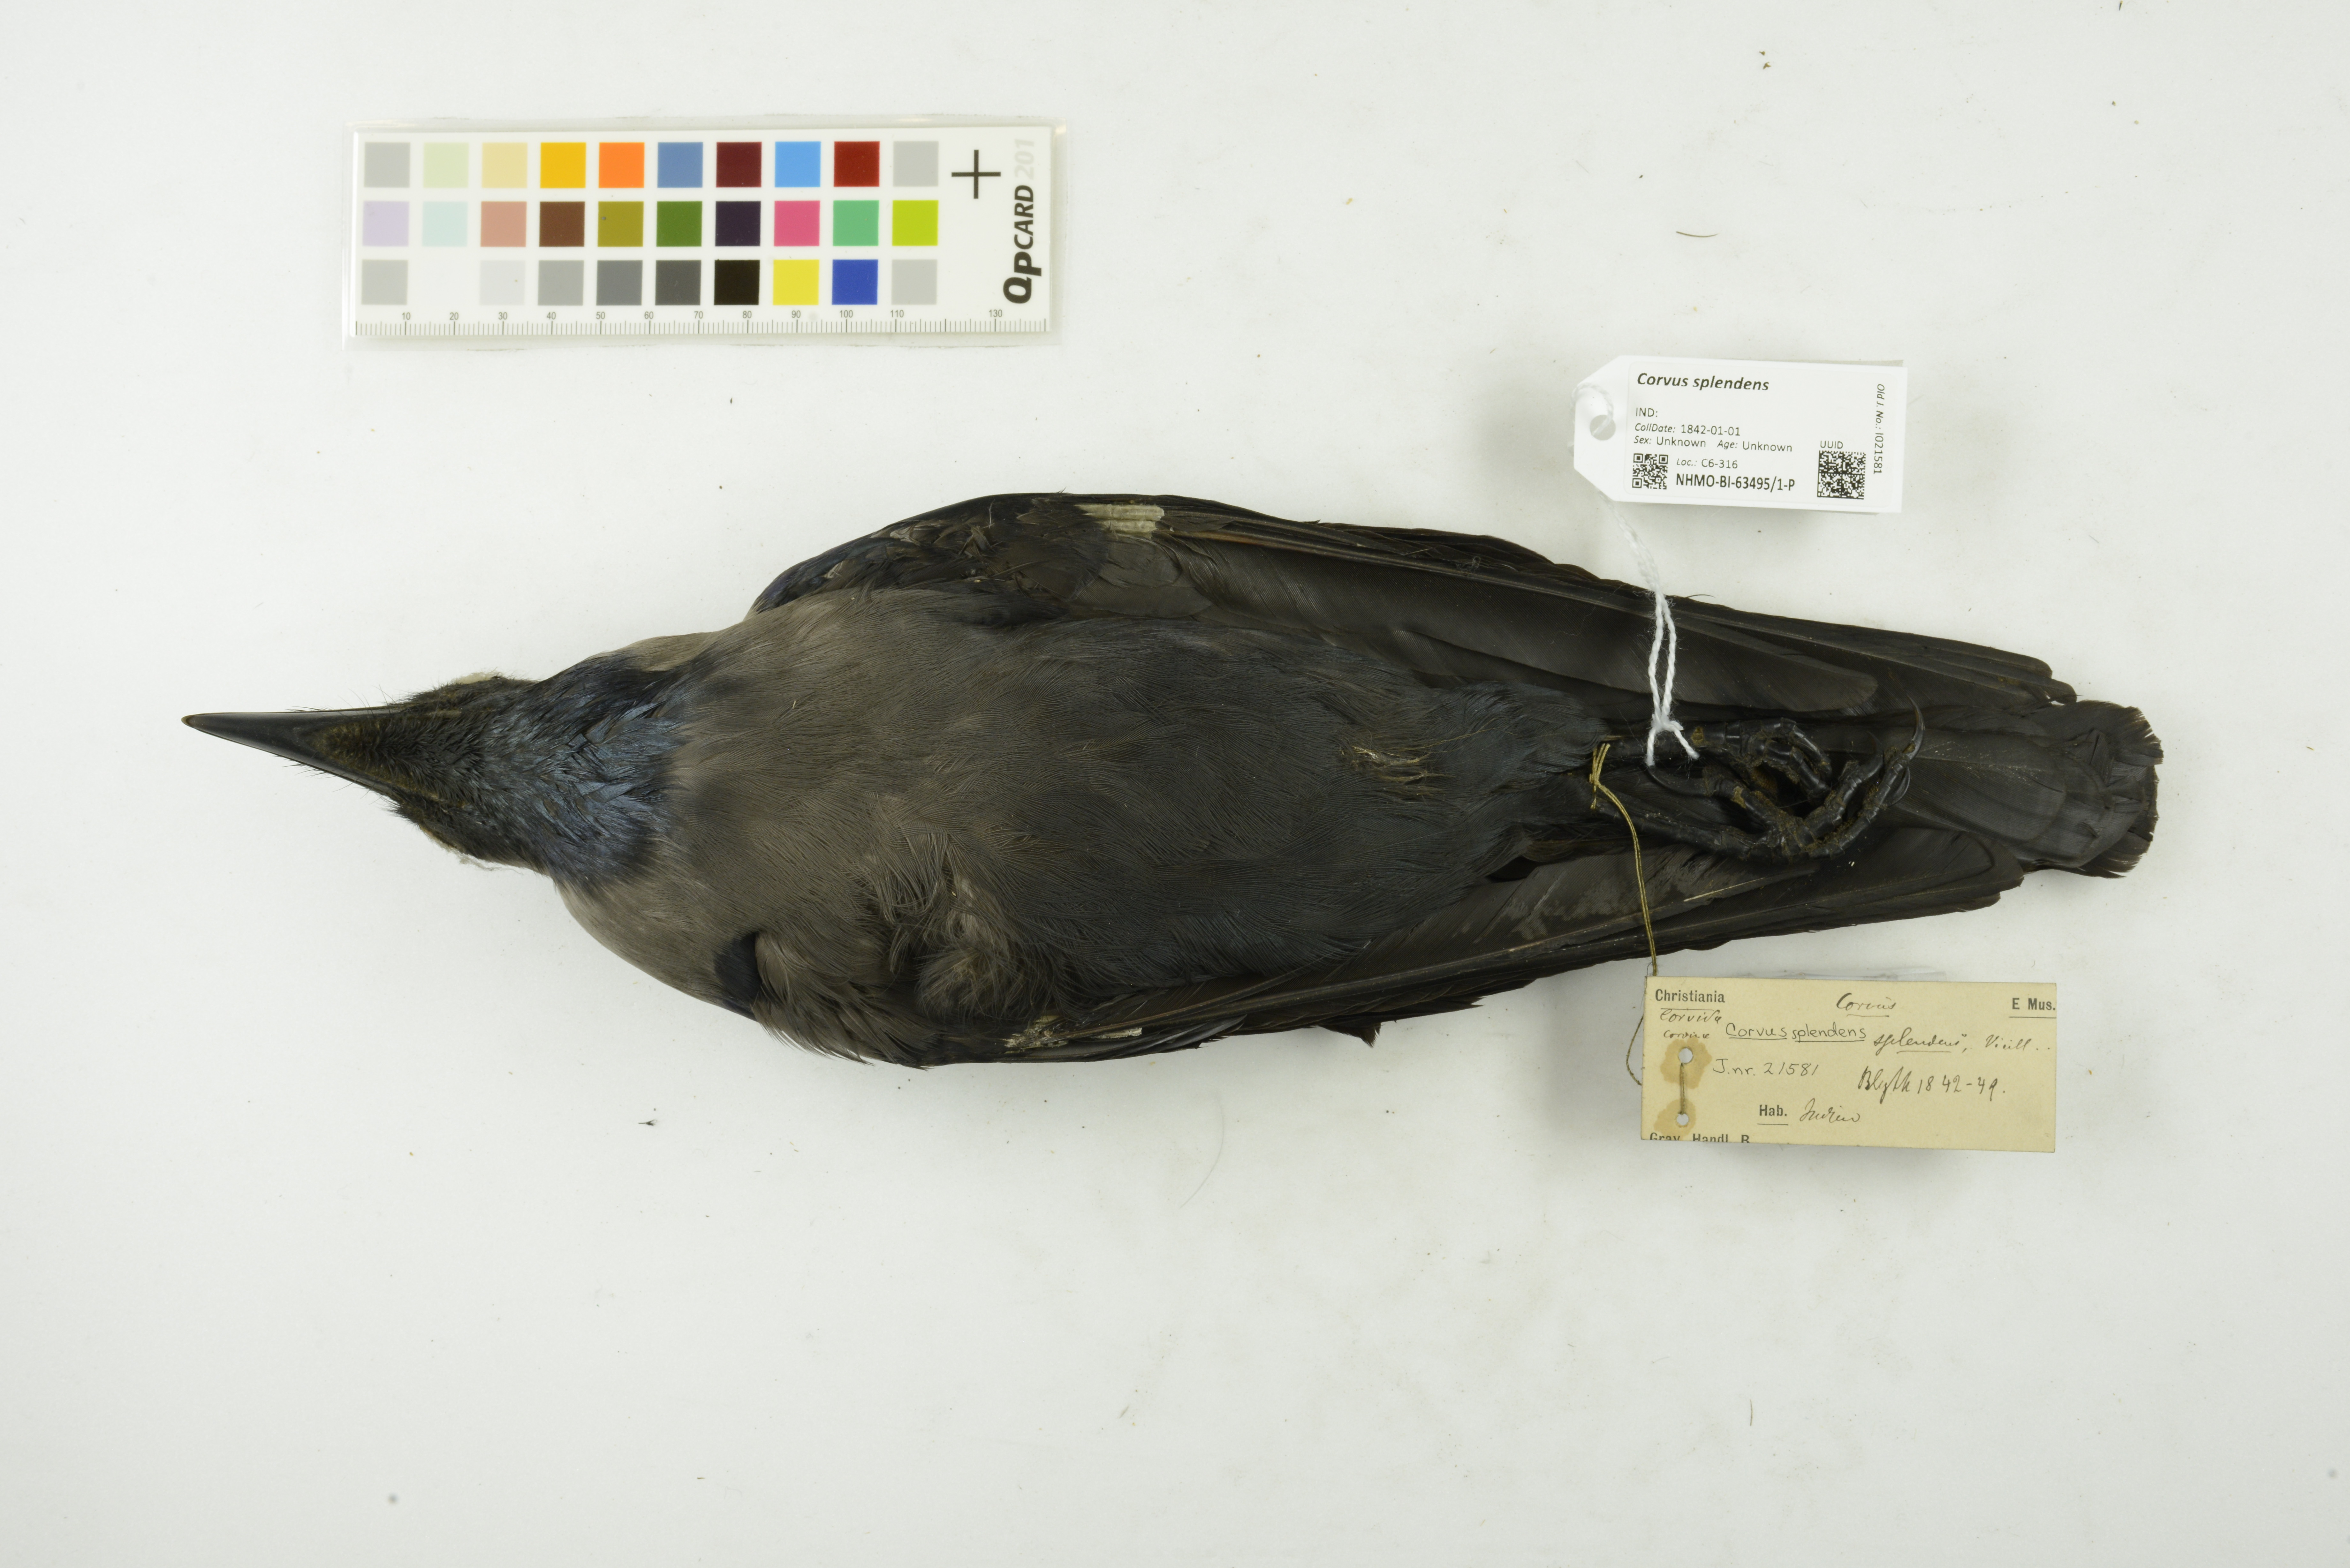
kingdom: Animalia
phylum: Chordata
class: Aves
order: Passeriformes
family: Corvidae
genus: Corvus
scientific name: Corvus splendens
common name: House crow
